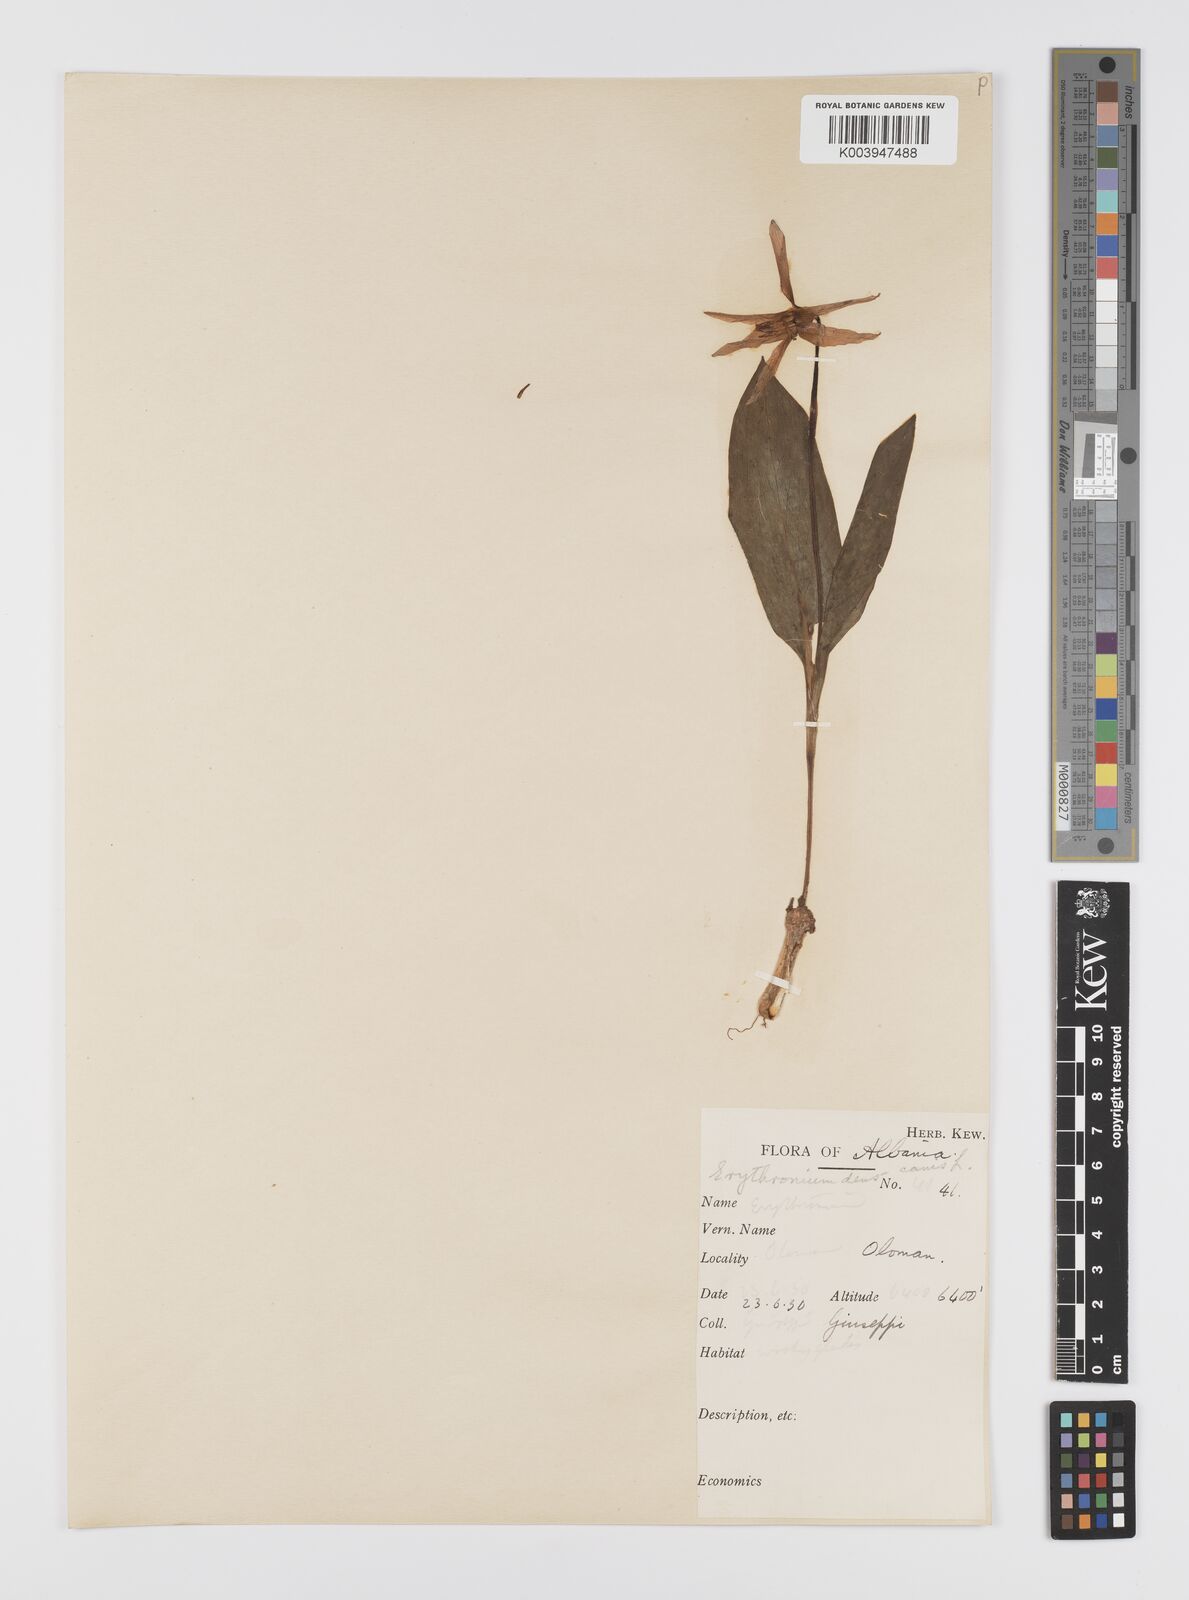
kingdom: Plantae
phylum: Tracheophyta
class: Liliopsida
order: Liliales
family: Liliaceae
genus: Erythronium
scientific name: Erythronium dens-canis
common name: Dog's-tooth-violet
